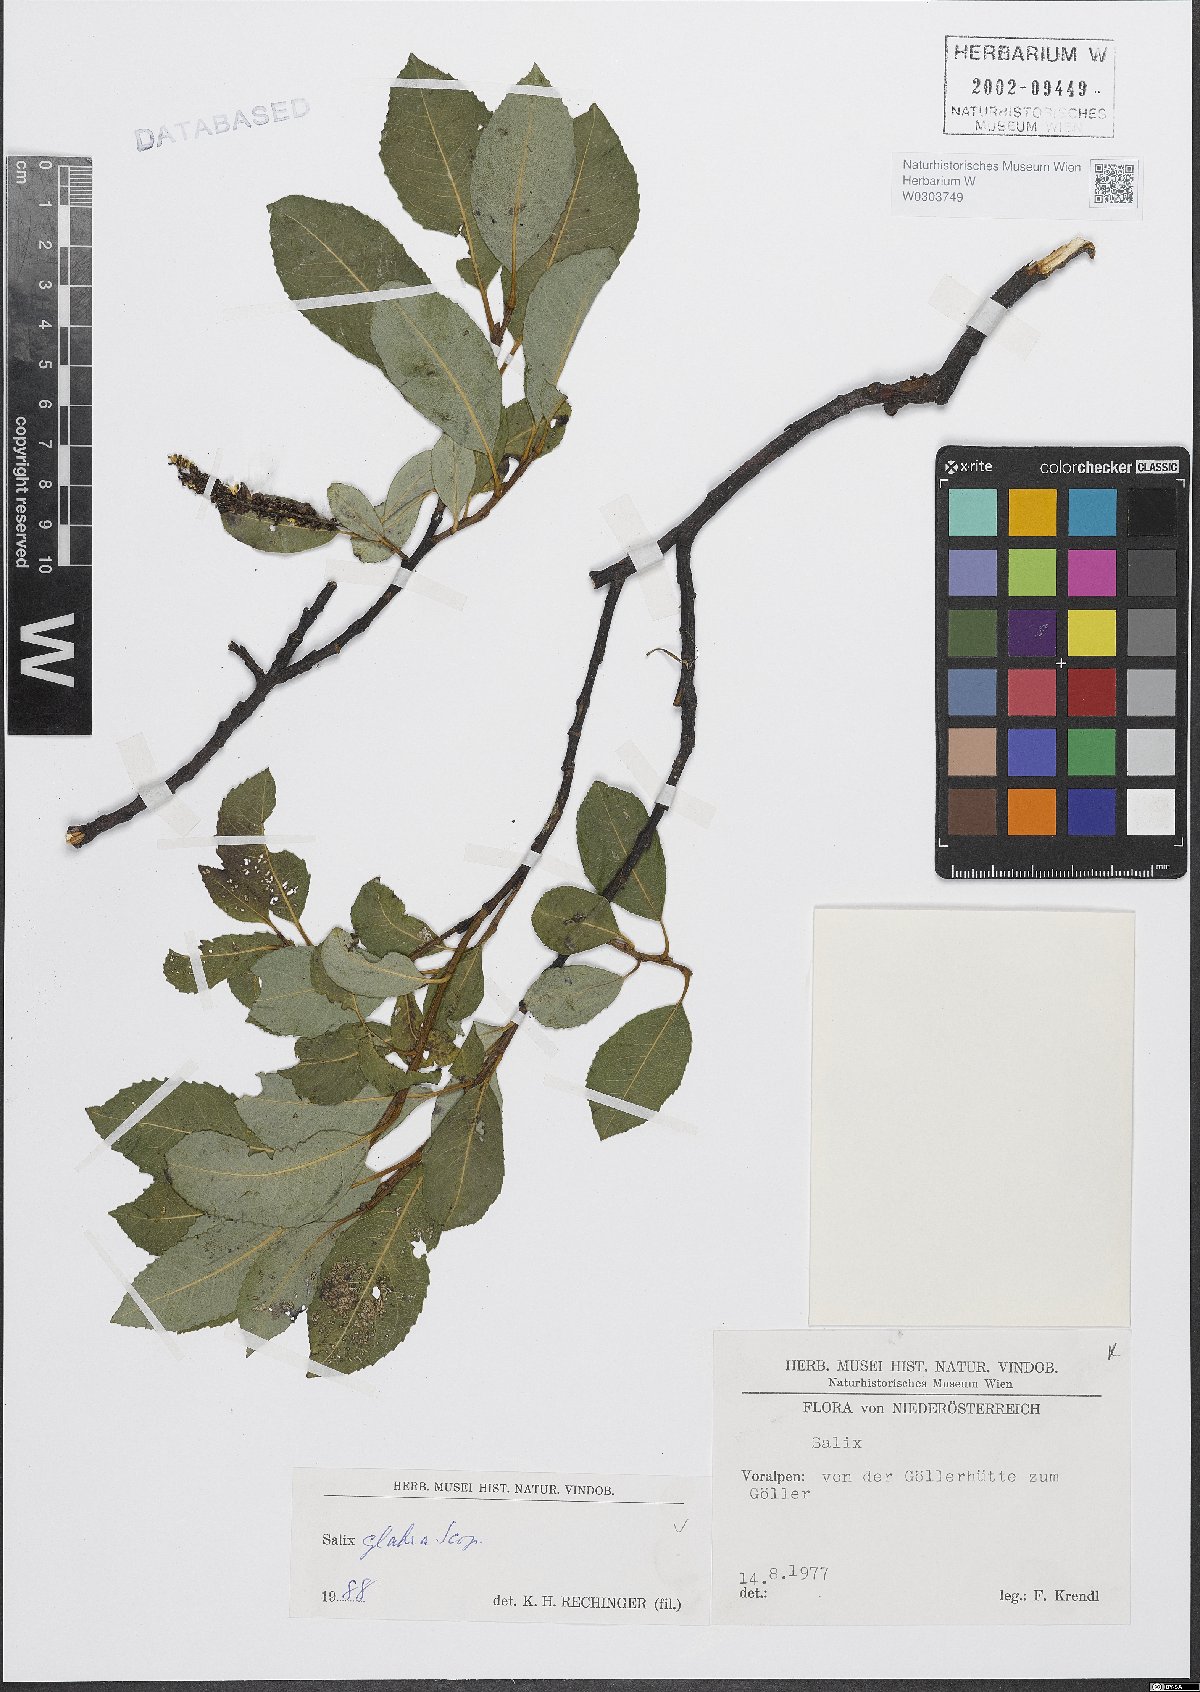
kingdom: Plantae
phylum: Tracheophyta
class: Magnoliopsida
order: Malpighiales
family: Salicaceae
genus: Salix
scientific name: Salix glabra
